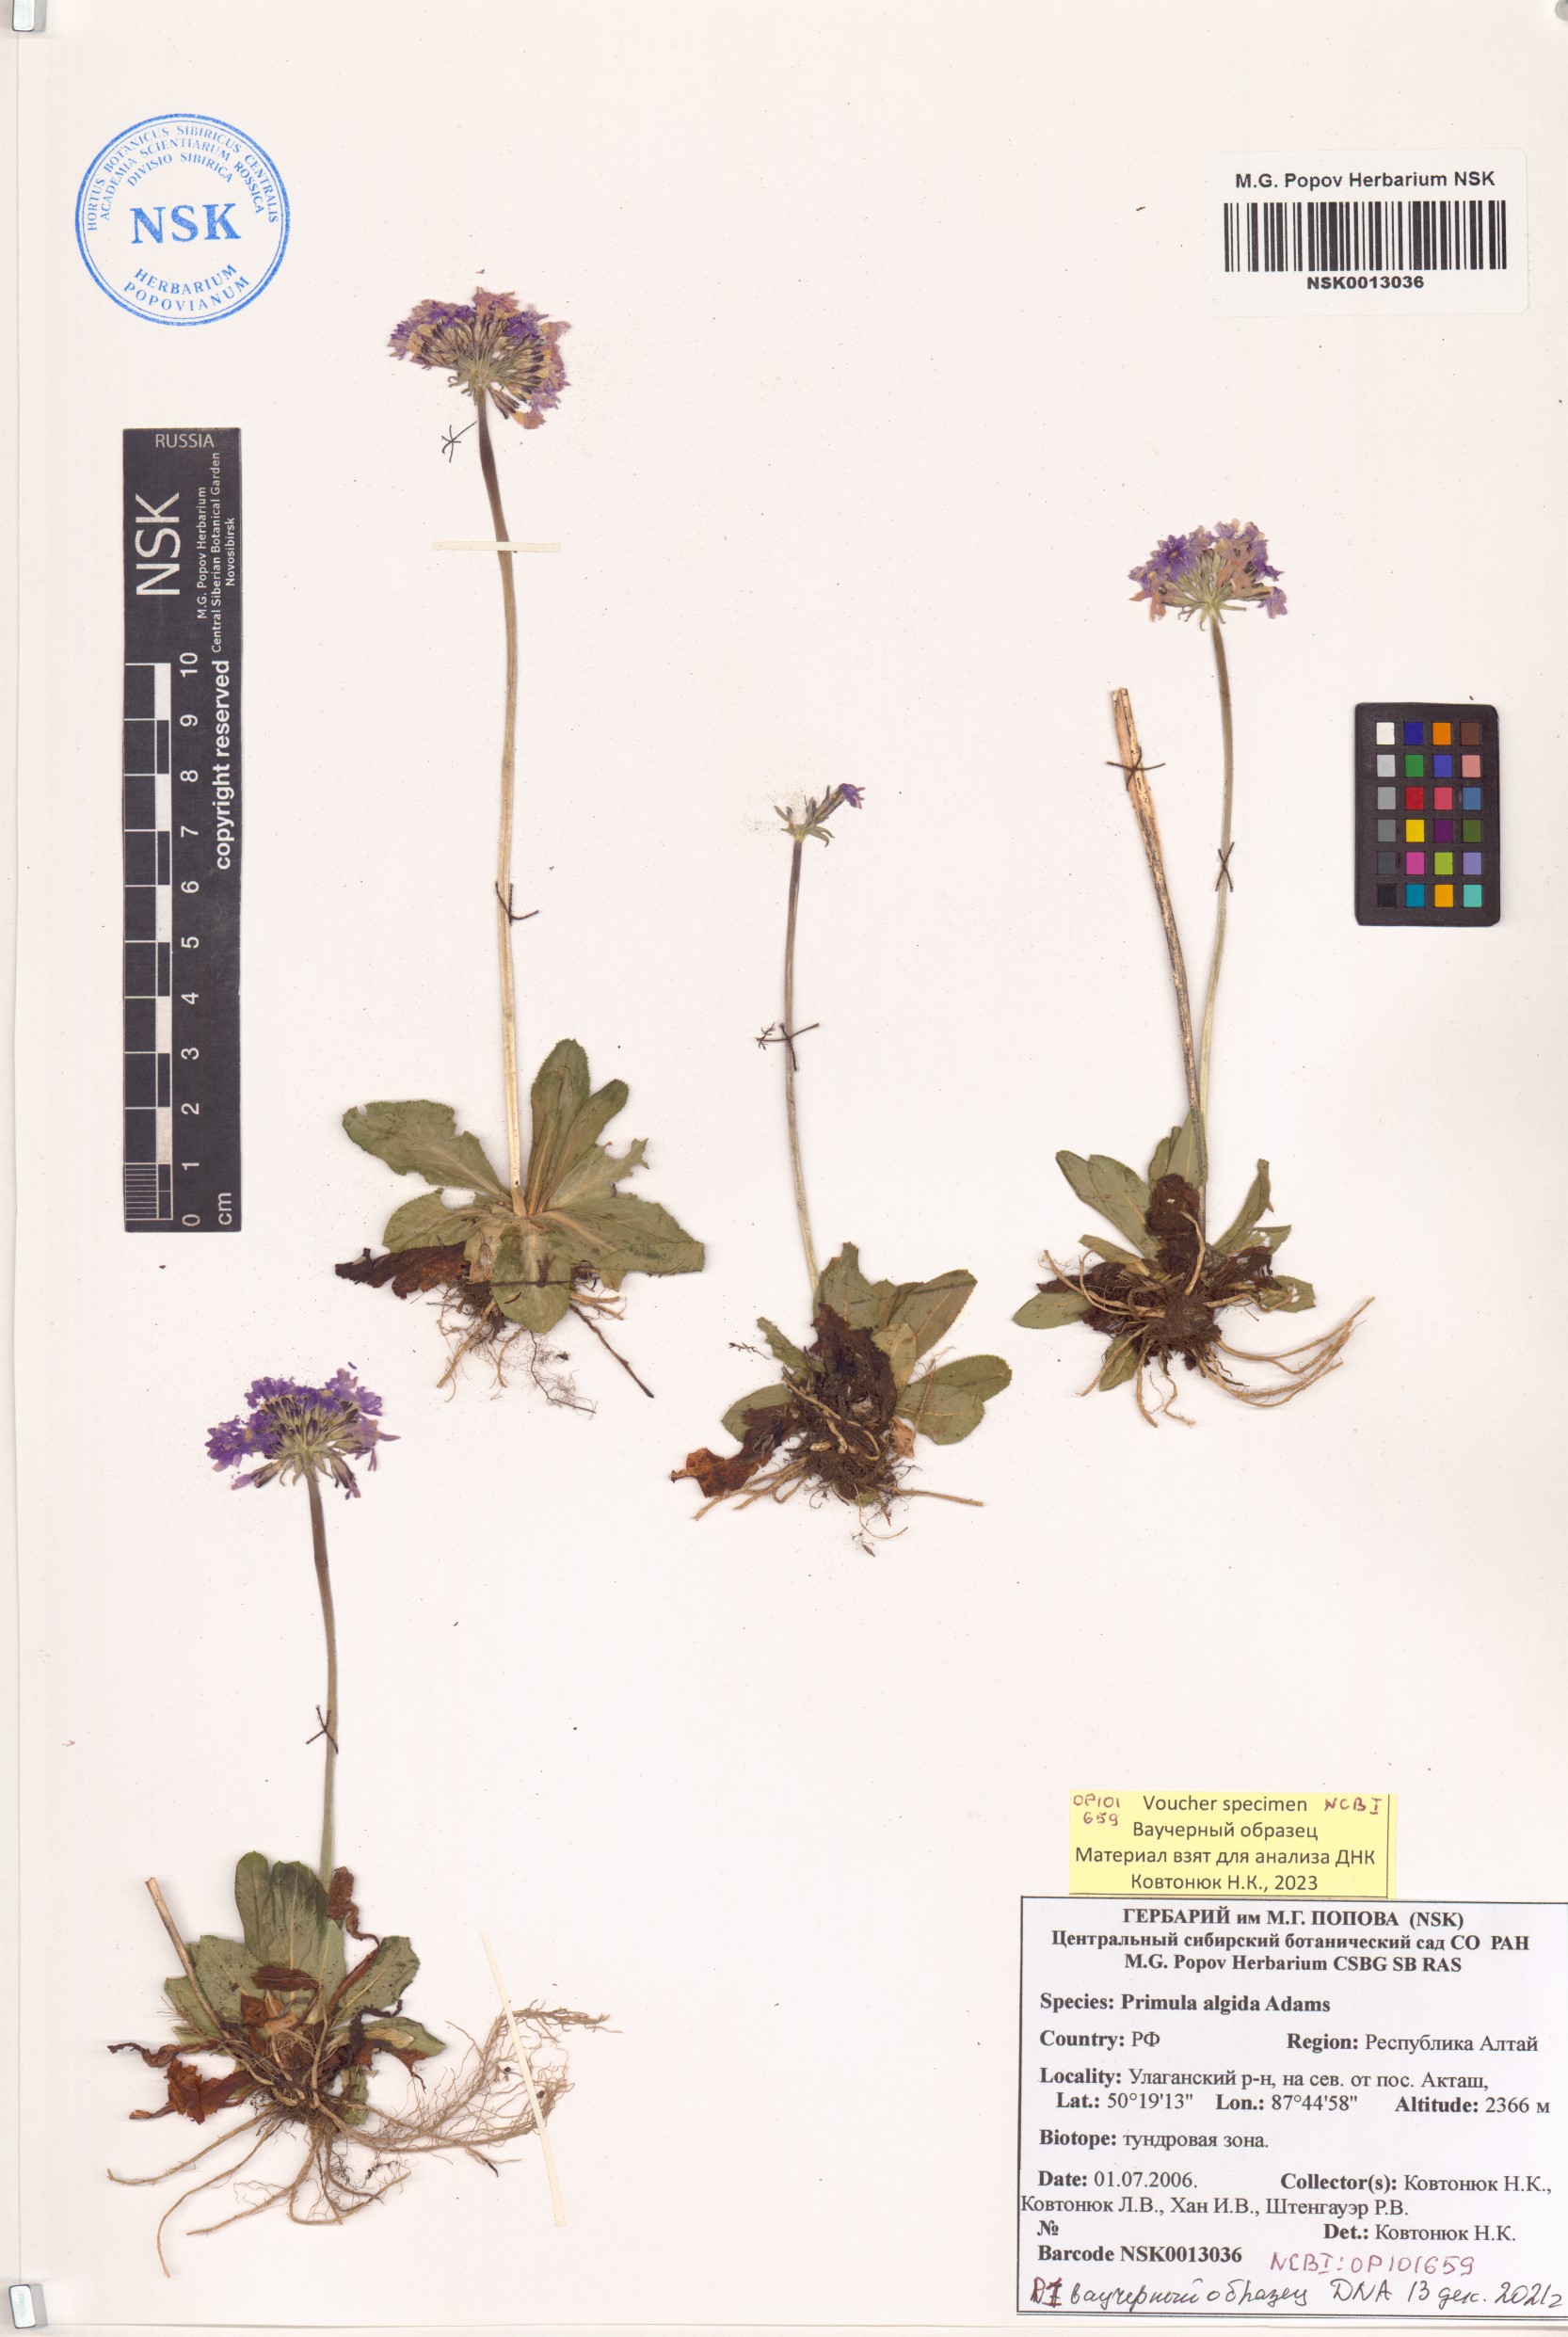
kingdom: Plantae
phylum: Tracheophyta
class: Magnoliopsida
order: Ericales
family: Primulaceae
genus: Primula
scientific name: Primula algida
